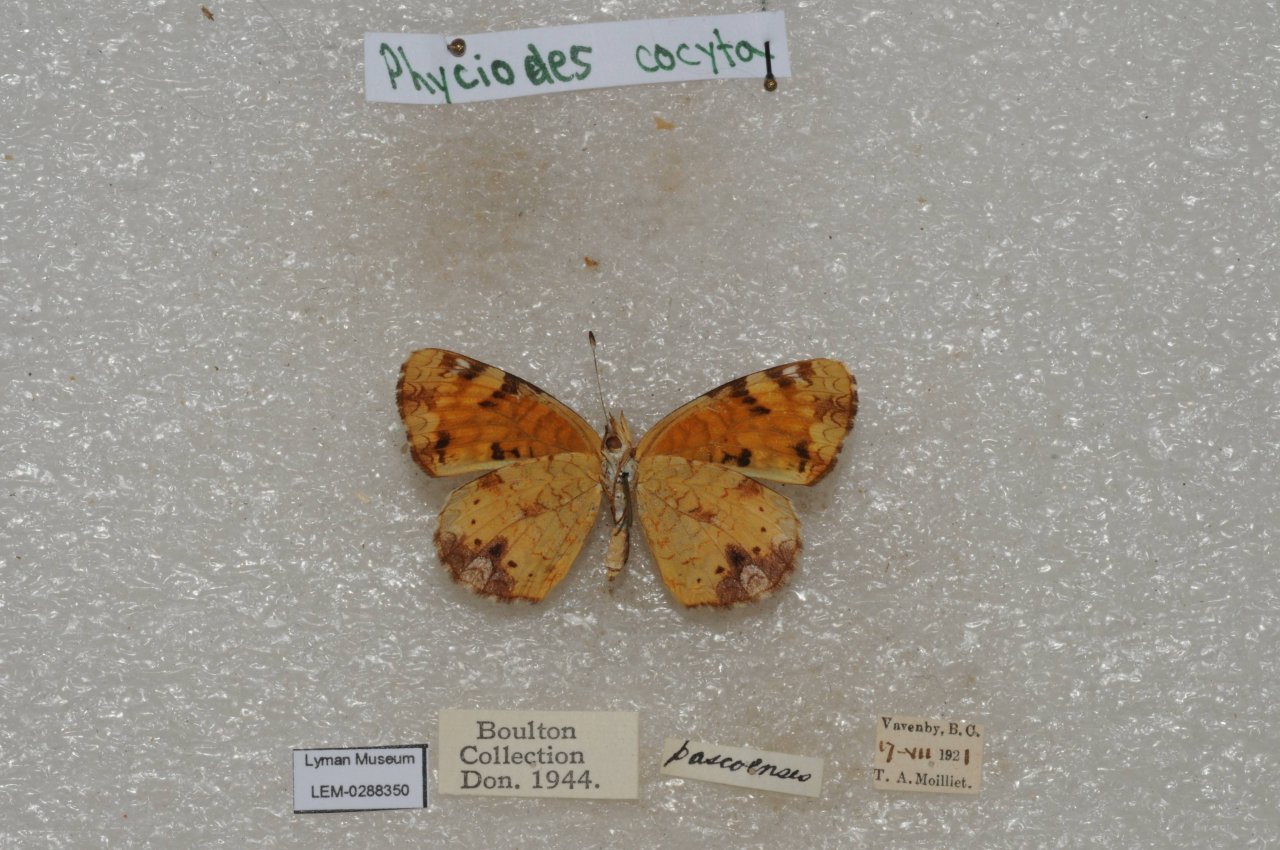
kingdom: Animalia
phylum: Arthropoda
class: Insecta
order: Lepidoptera
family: Nymphalidae
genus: Phyciodes
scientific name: Phyciodes tharos
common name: Northern Crescent
